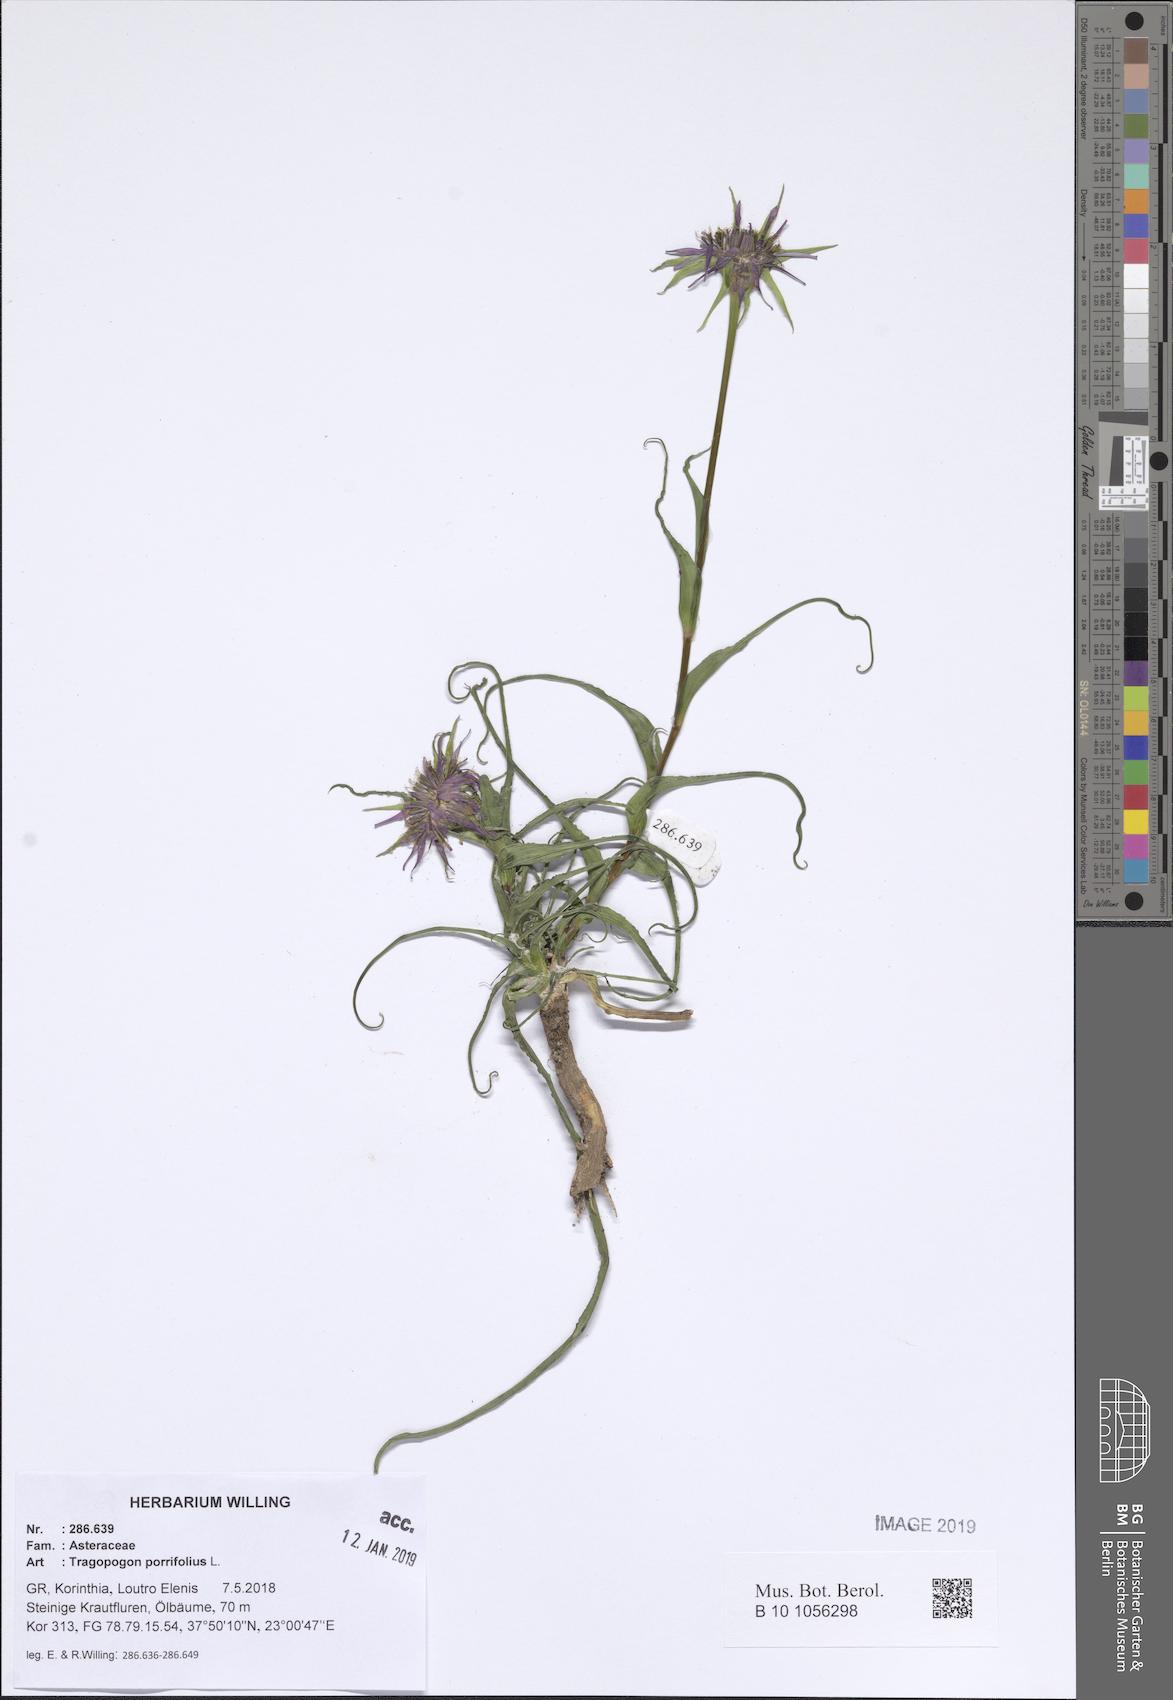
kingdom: Plantae
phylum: Tracheophyta
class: Magnoliopsida
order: Asterales
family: Asteraceae
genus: Tragopogon
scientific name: Tragopogon porrifolius
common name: Salsify
